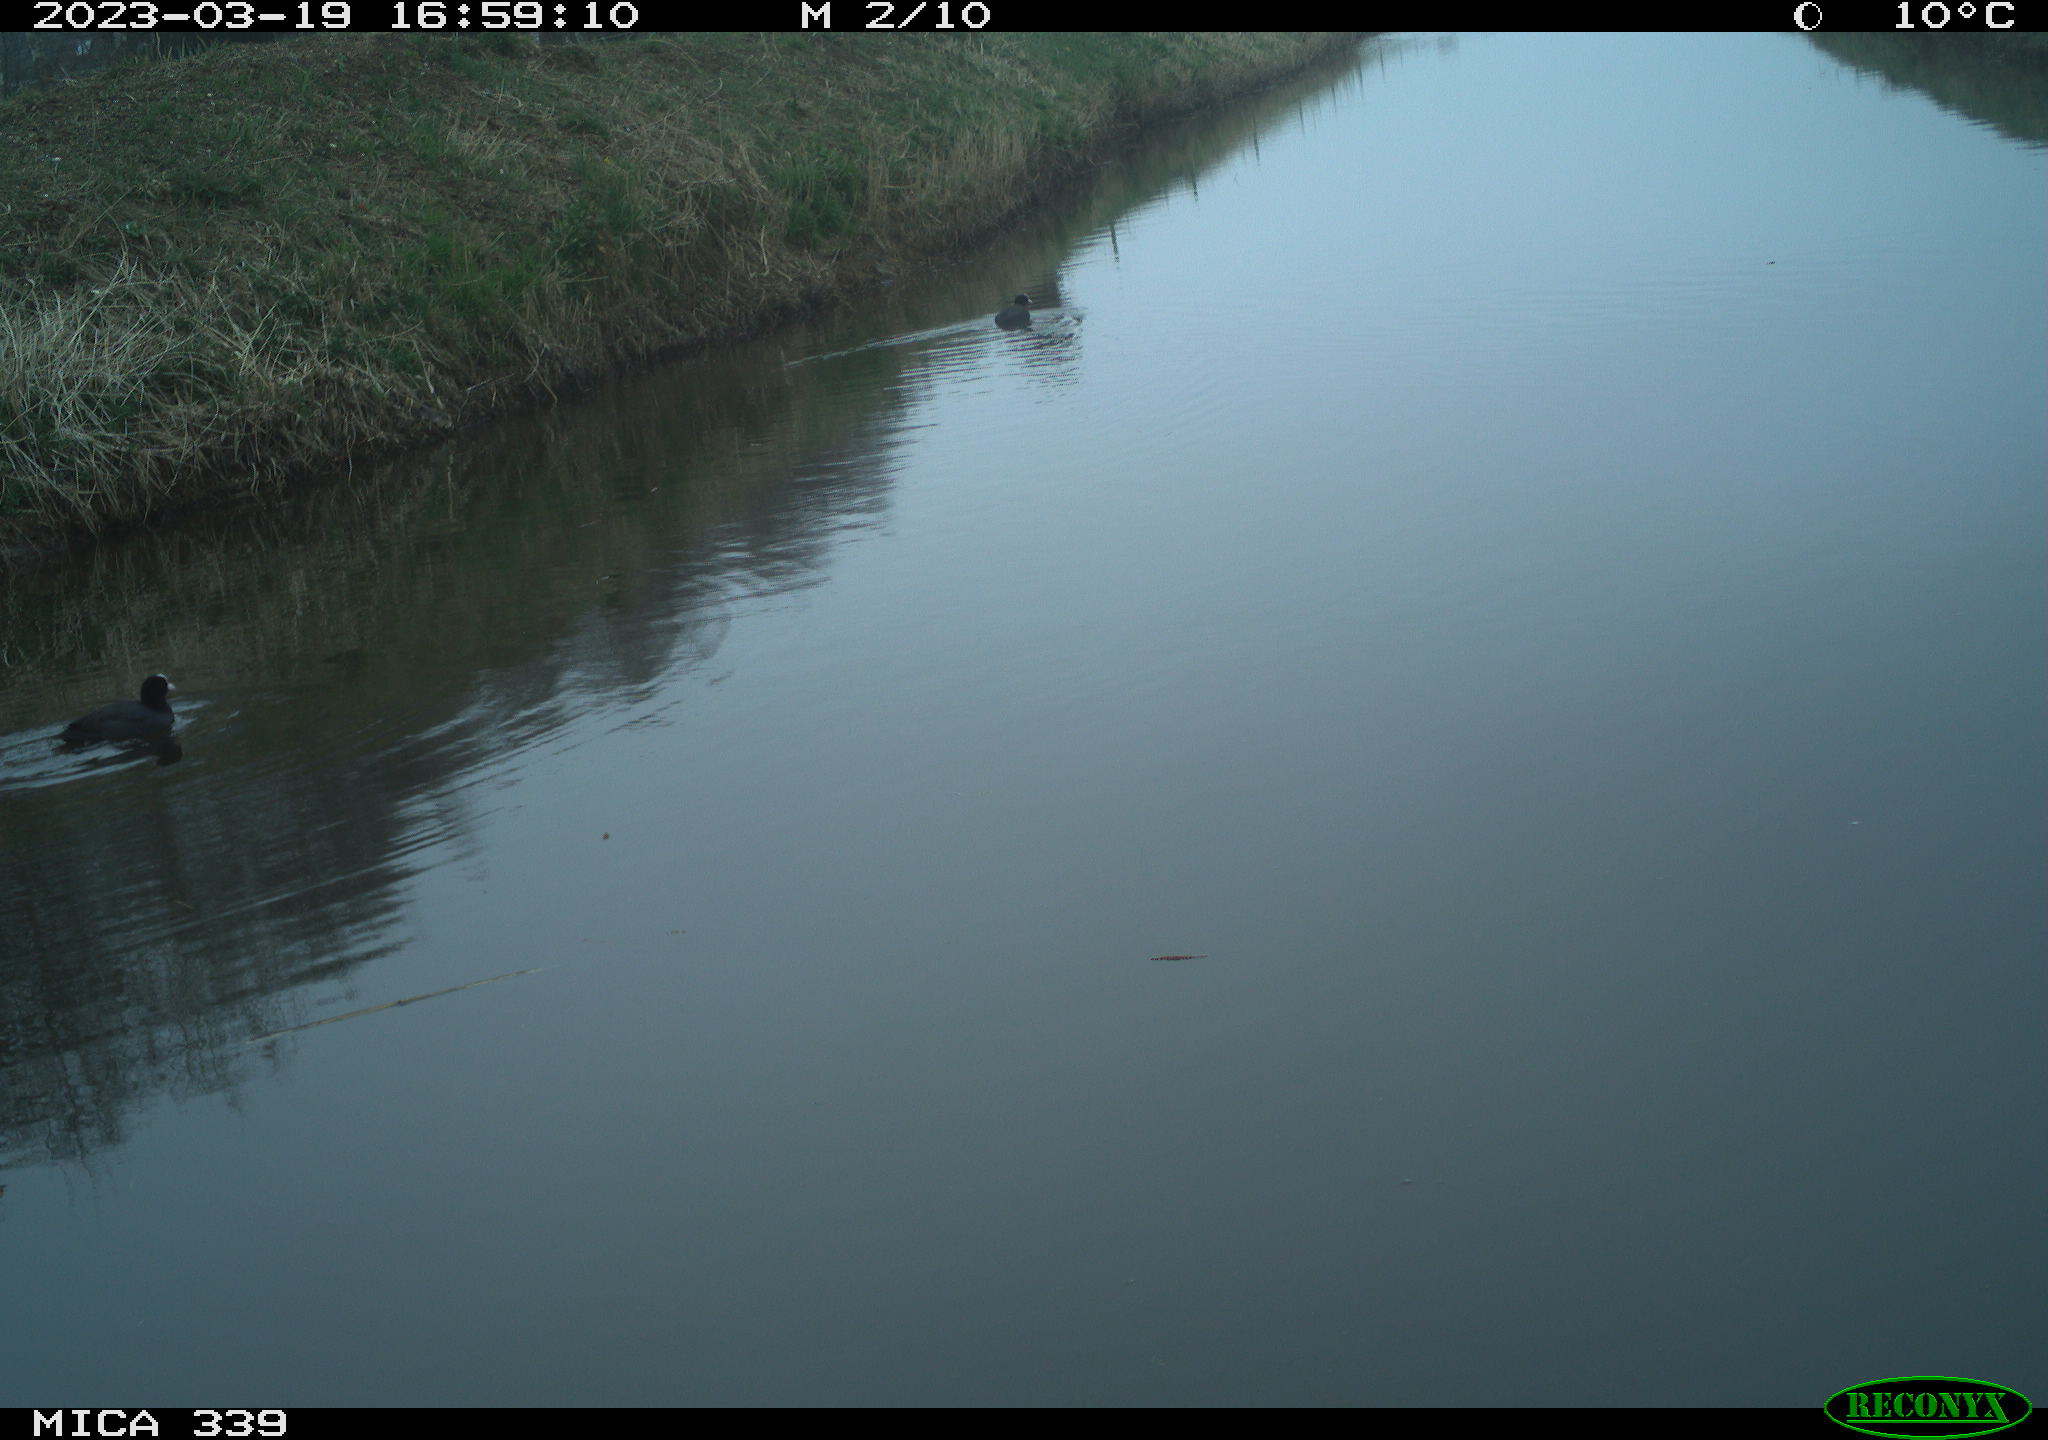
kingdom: Animalia
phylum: Chordata
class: Aves
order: Gruiformes
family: Rallidae
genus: Fulica
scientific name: Fulica atra
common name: Eurasian coot
